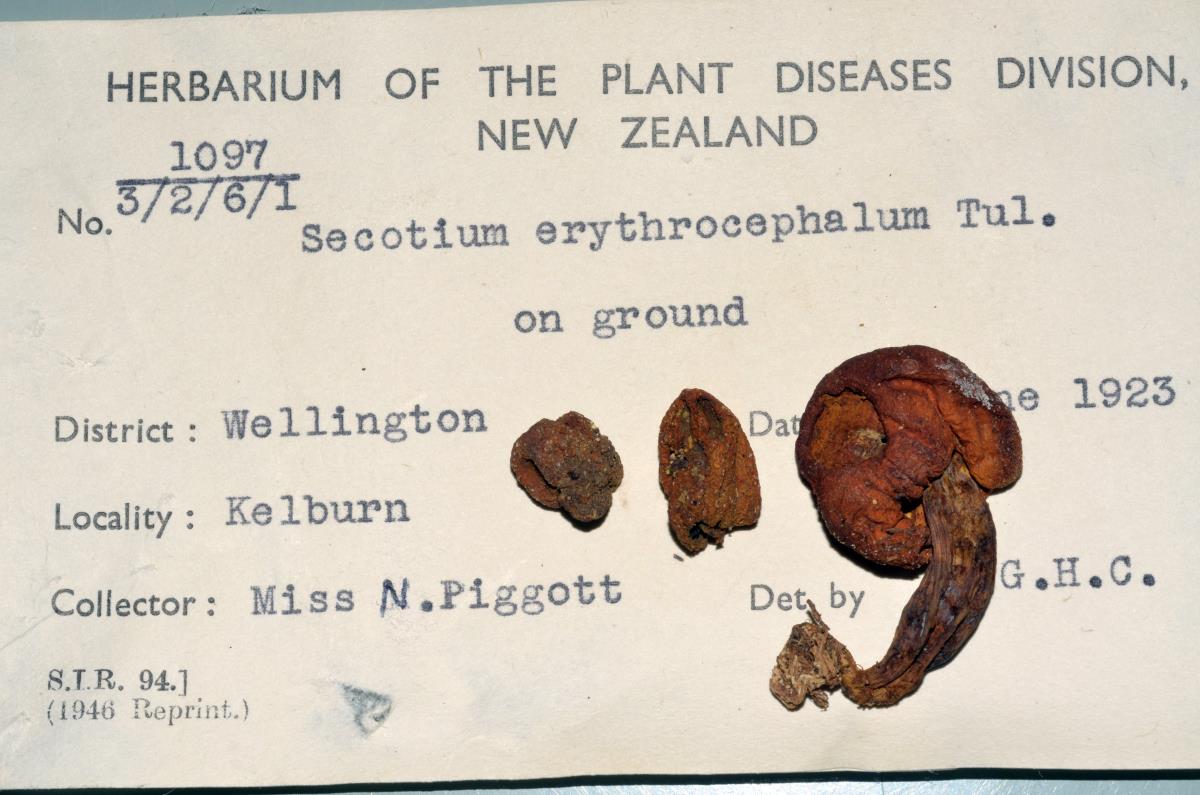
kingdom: Fungi
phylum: Basidiomycota
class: Agaricomycetes
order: Agaricales
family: Strophariaceae
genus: Leratiomyces
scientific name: Leratiomyces erythrocephalus
